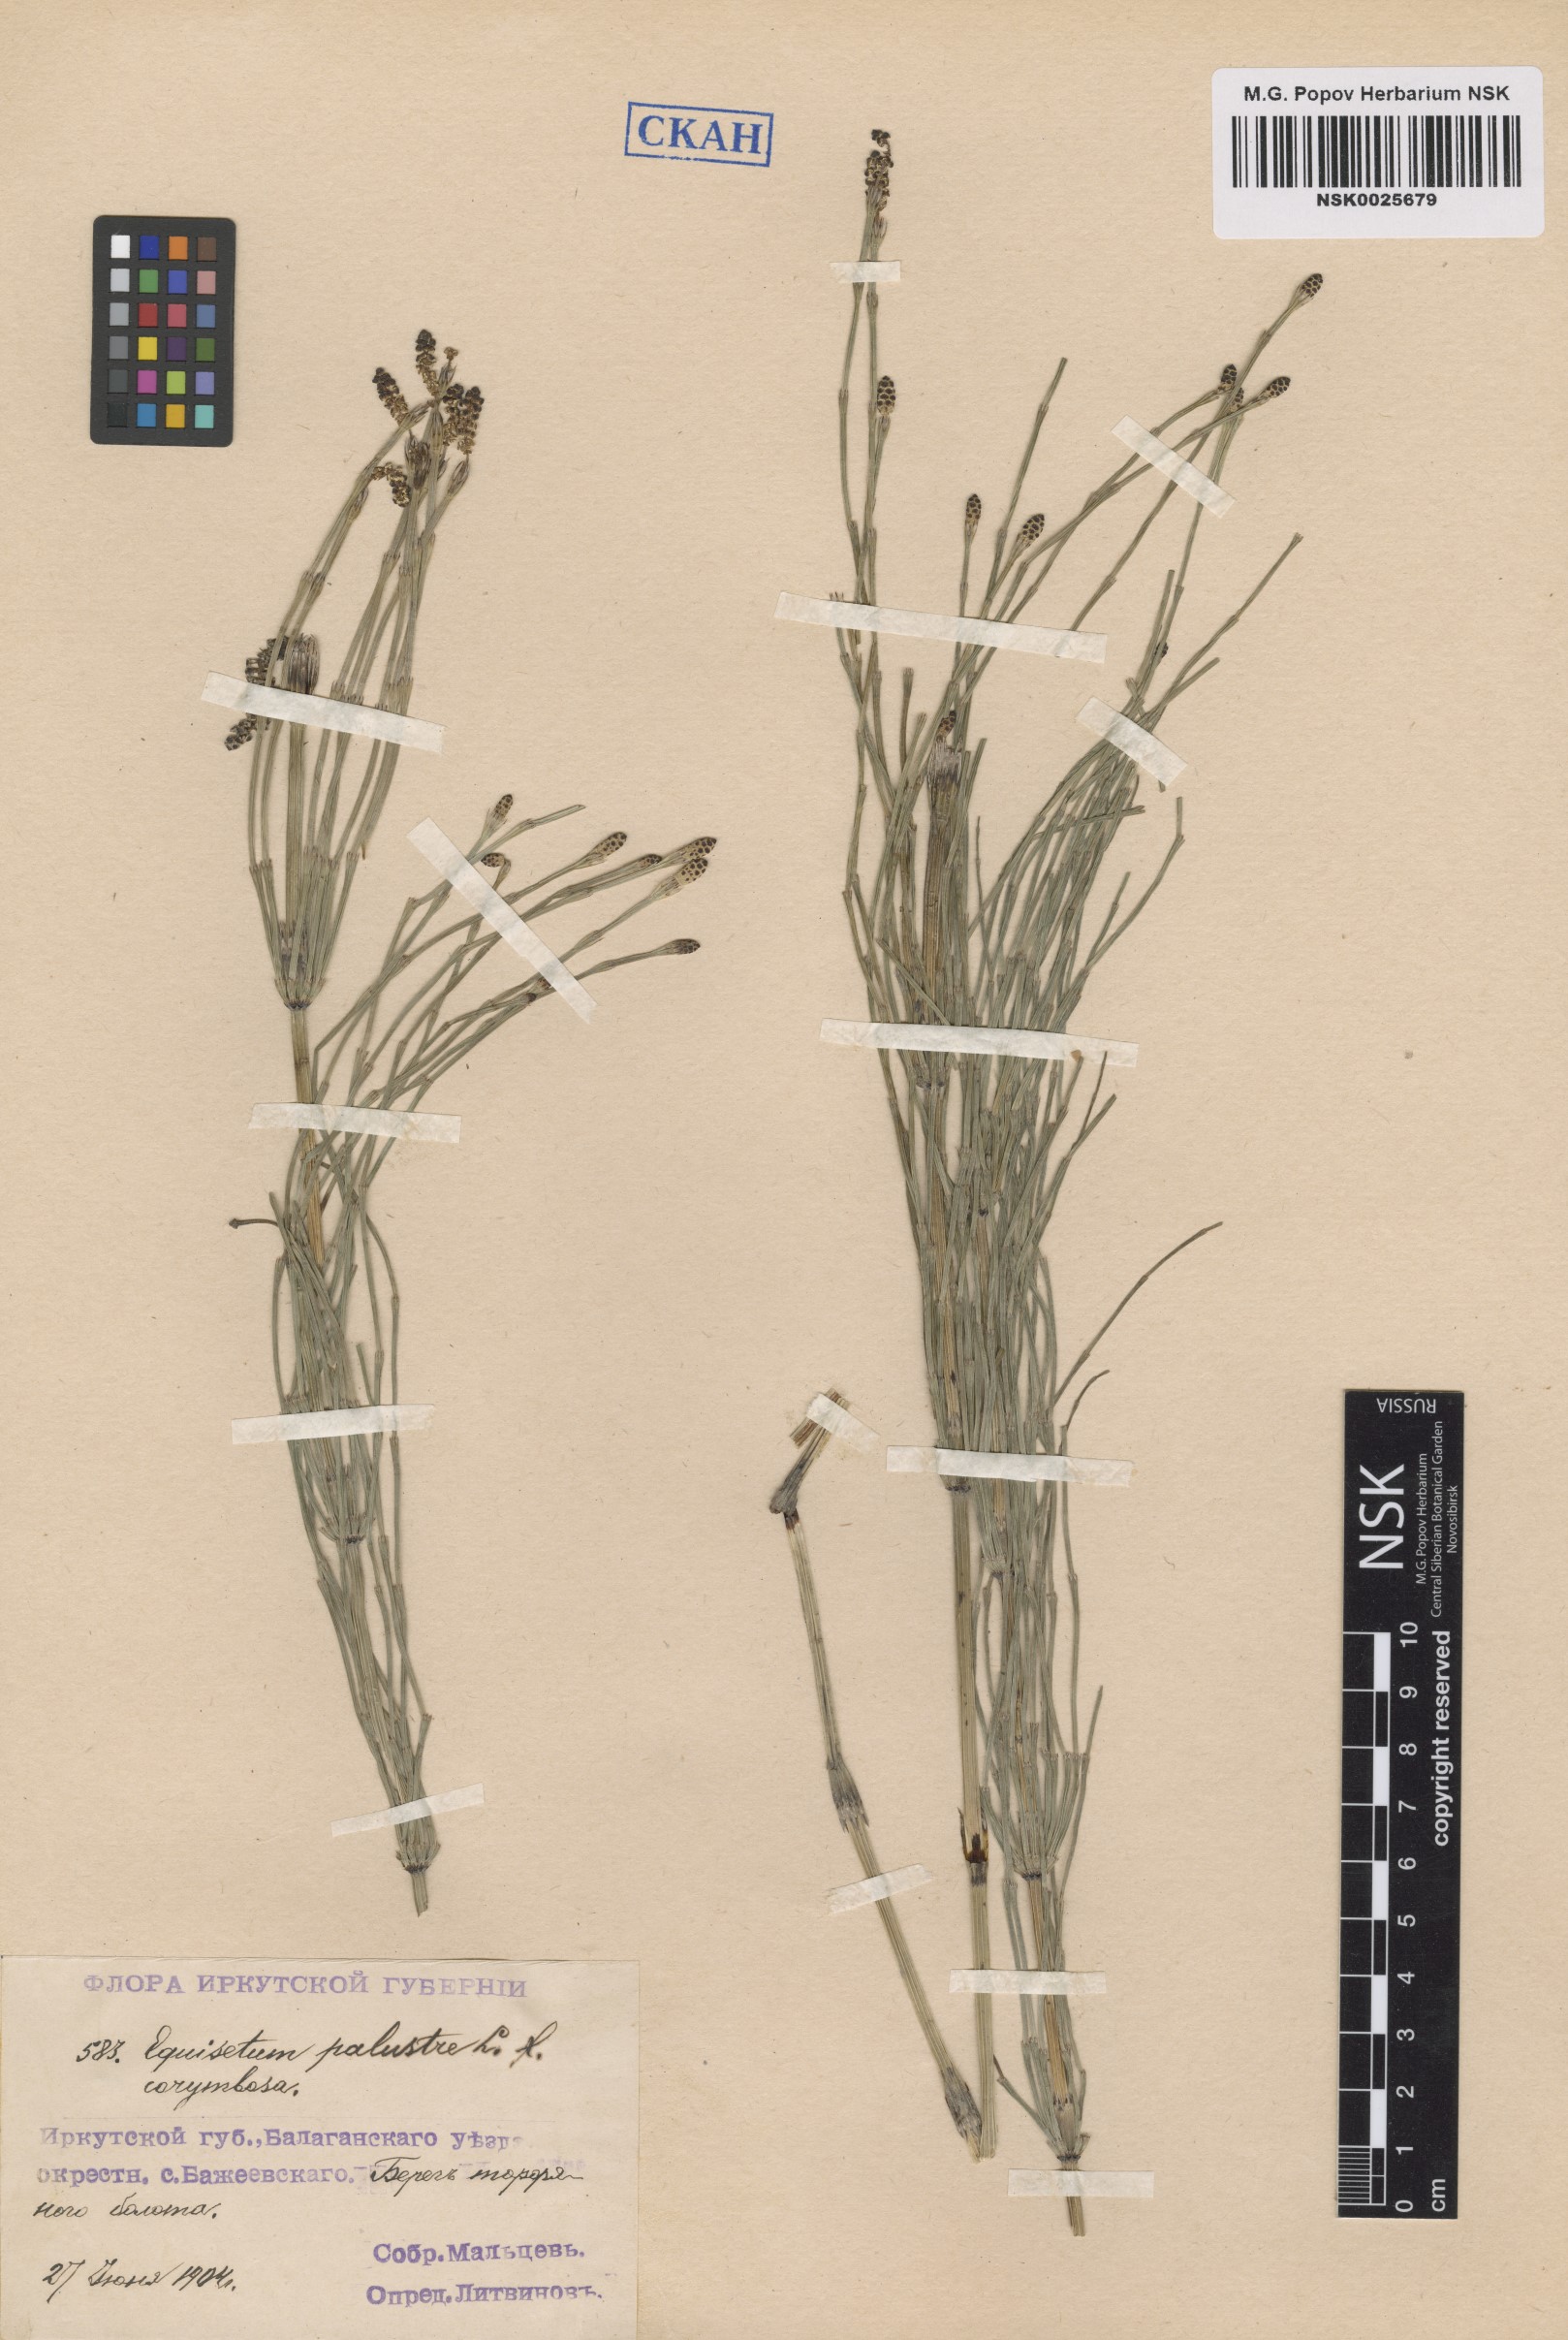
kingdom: Plantae
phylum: Tracheophyta
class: Polypodiopsida
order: Equisetales
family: Equisetaceae
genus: Equisetum
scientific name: Equisetum palustre
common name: Marsh horsetail
